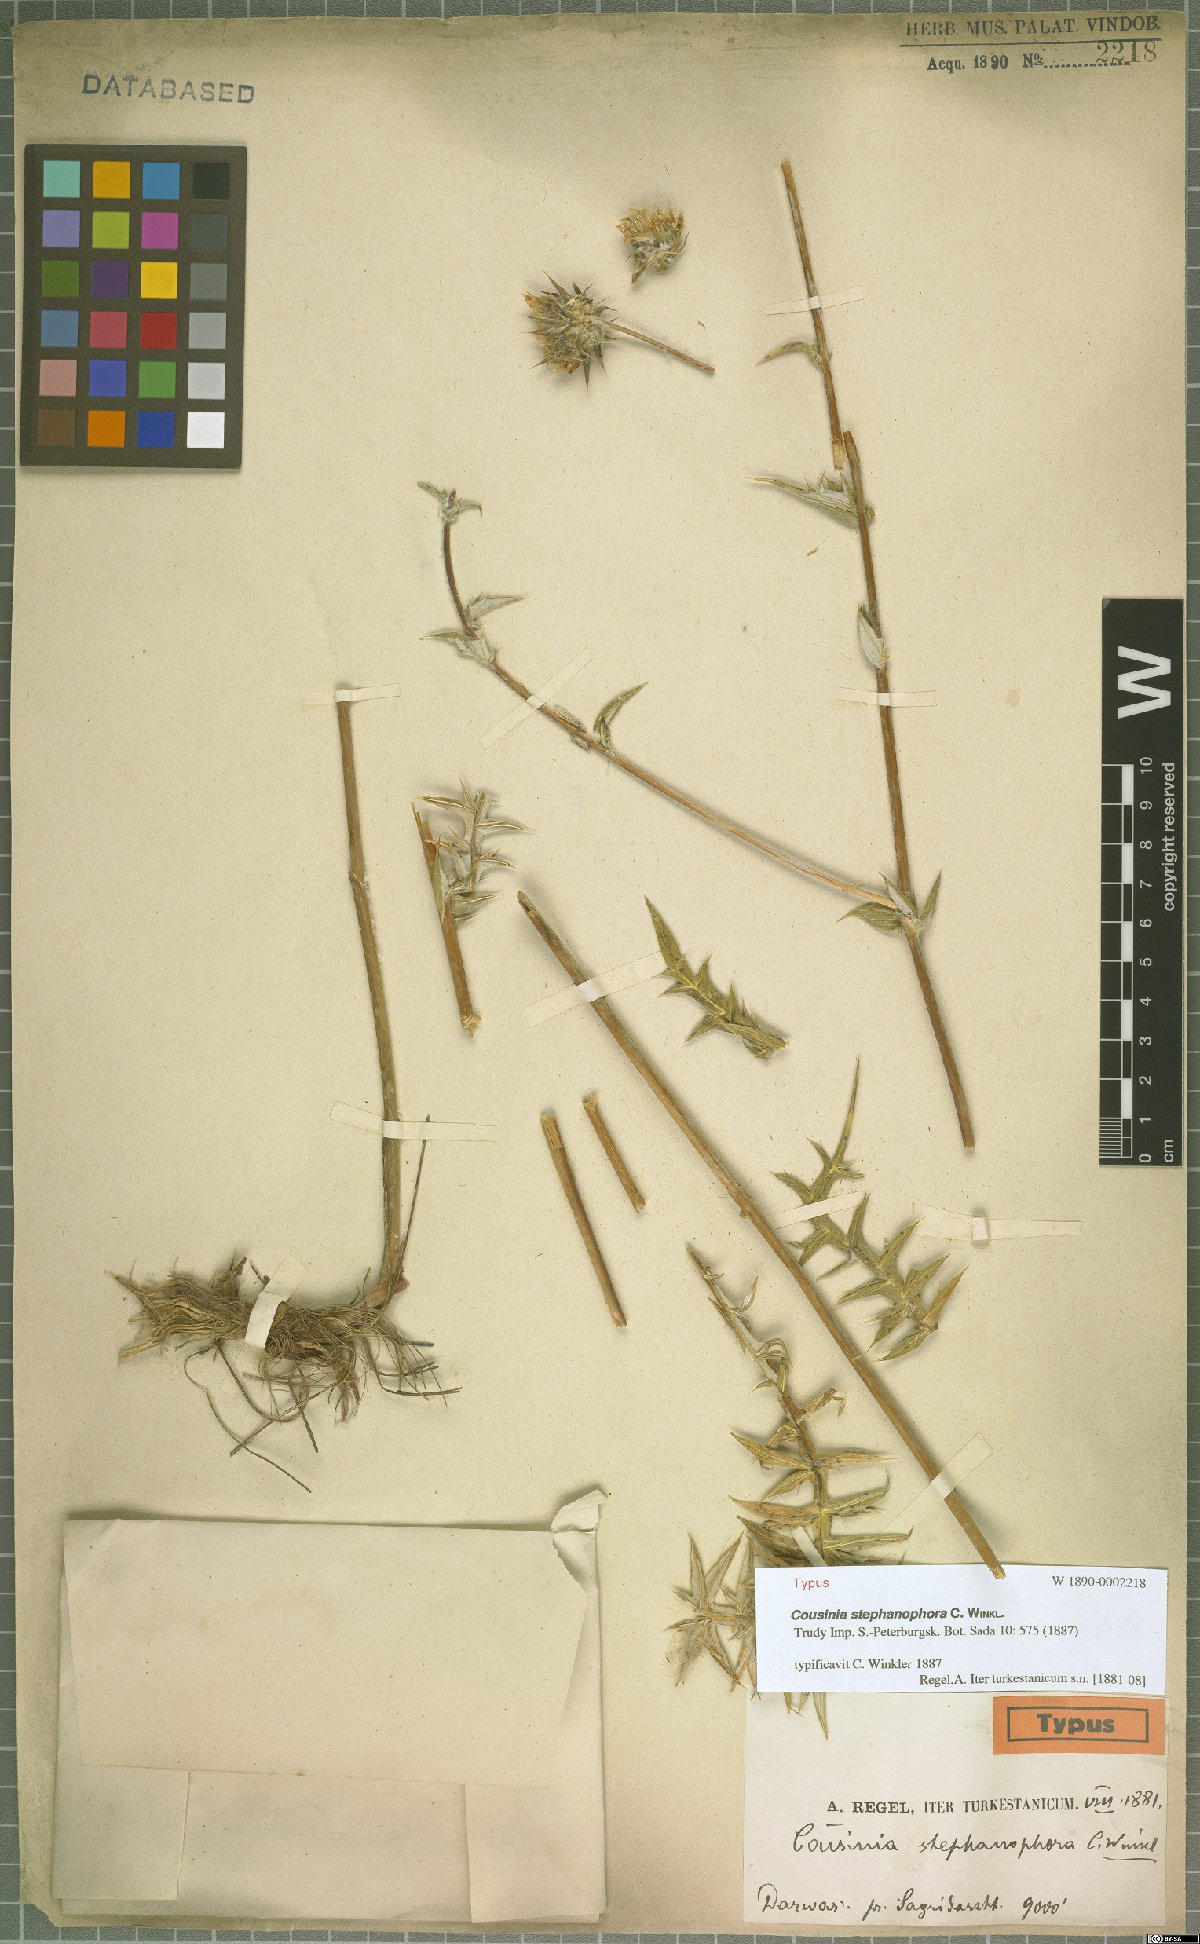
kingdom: Plantae
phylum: Tracheophyta
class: Magnoliopsida
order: Asterales
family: Asteraceae
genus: Cousinia
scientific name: Cousinia stephanophora
